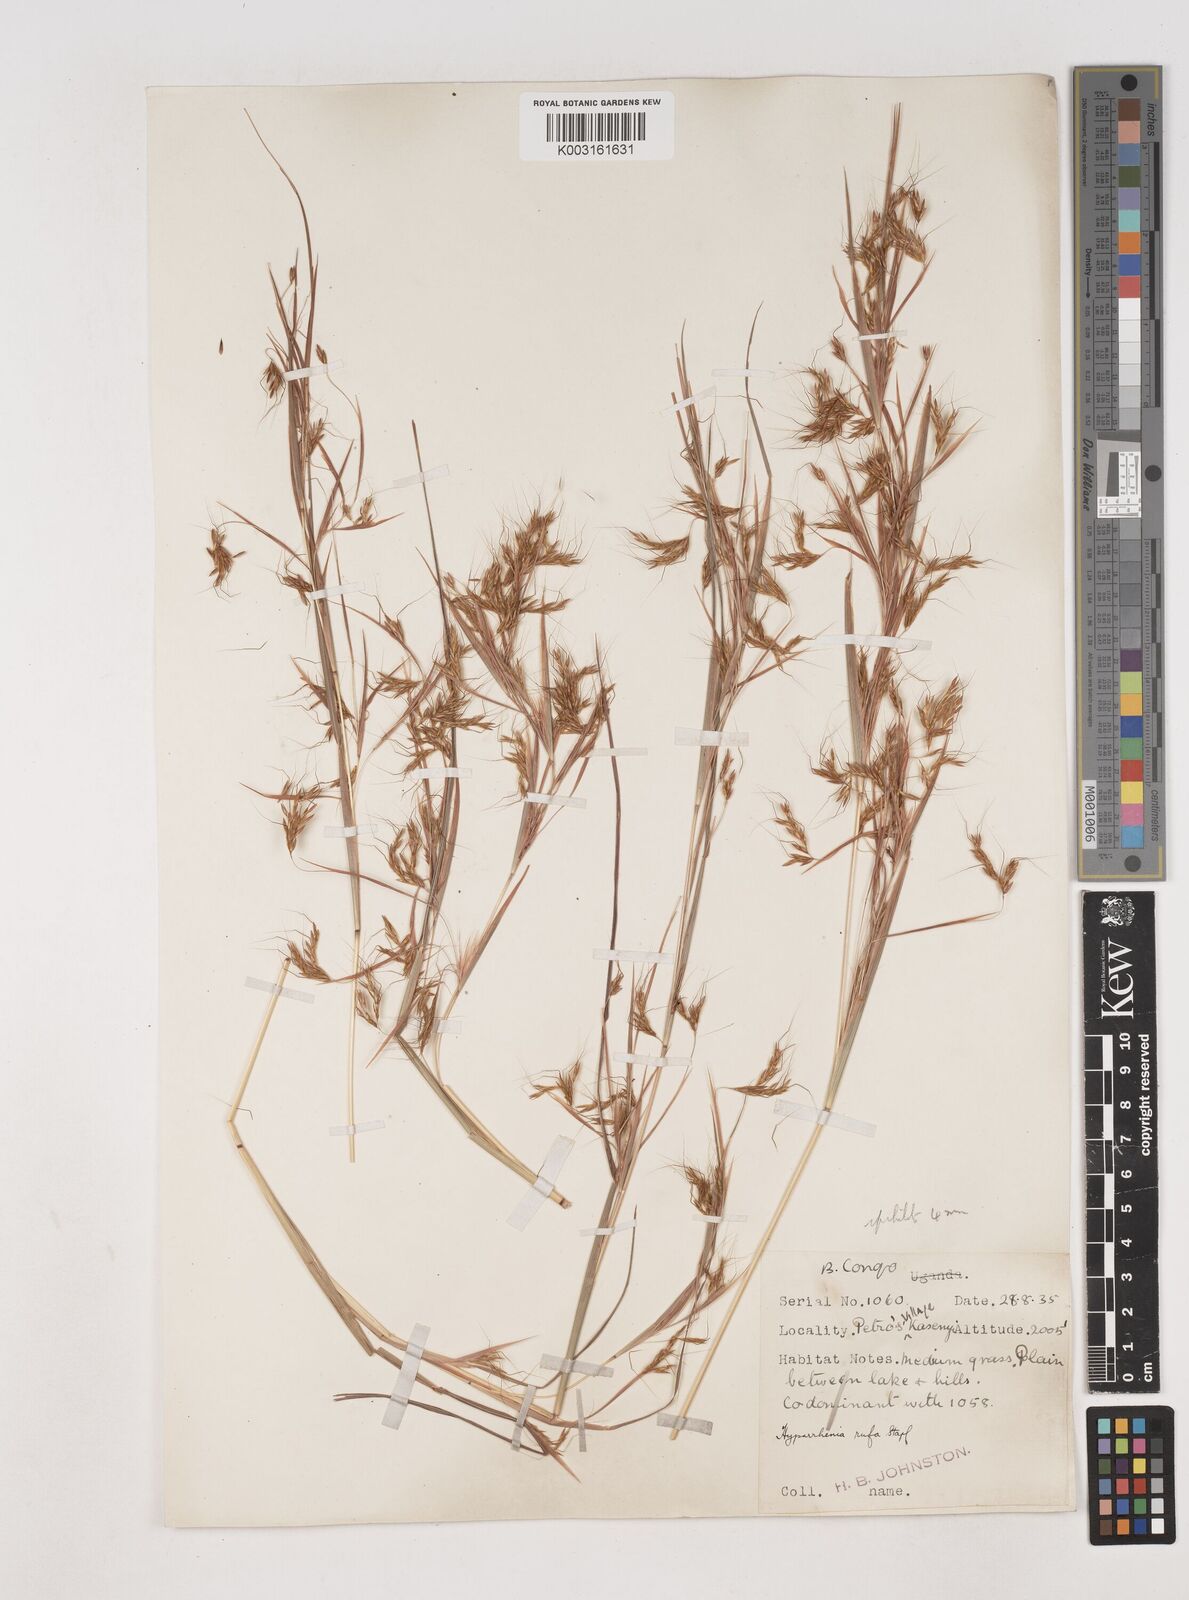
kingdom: Plantae
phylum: Tracheophyta
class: Liliopsida
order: Poales
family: Poaceae
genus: Hyparrhenia
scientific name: Hyparrhenia rufa
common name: Jaraguagrass
